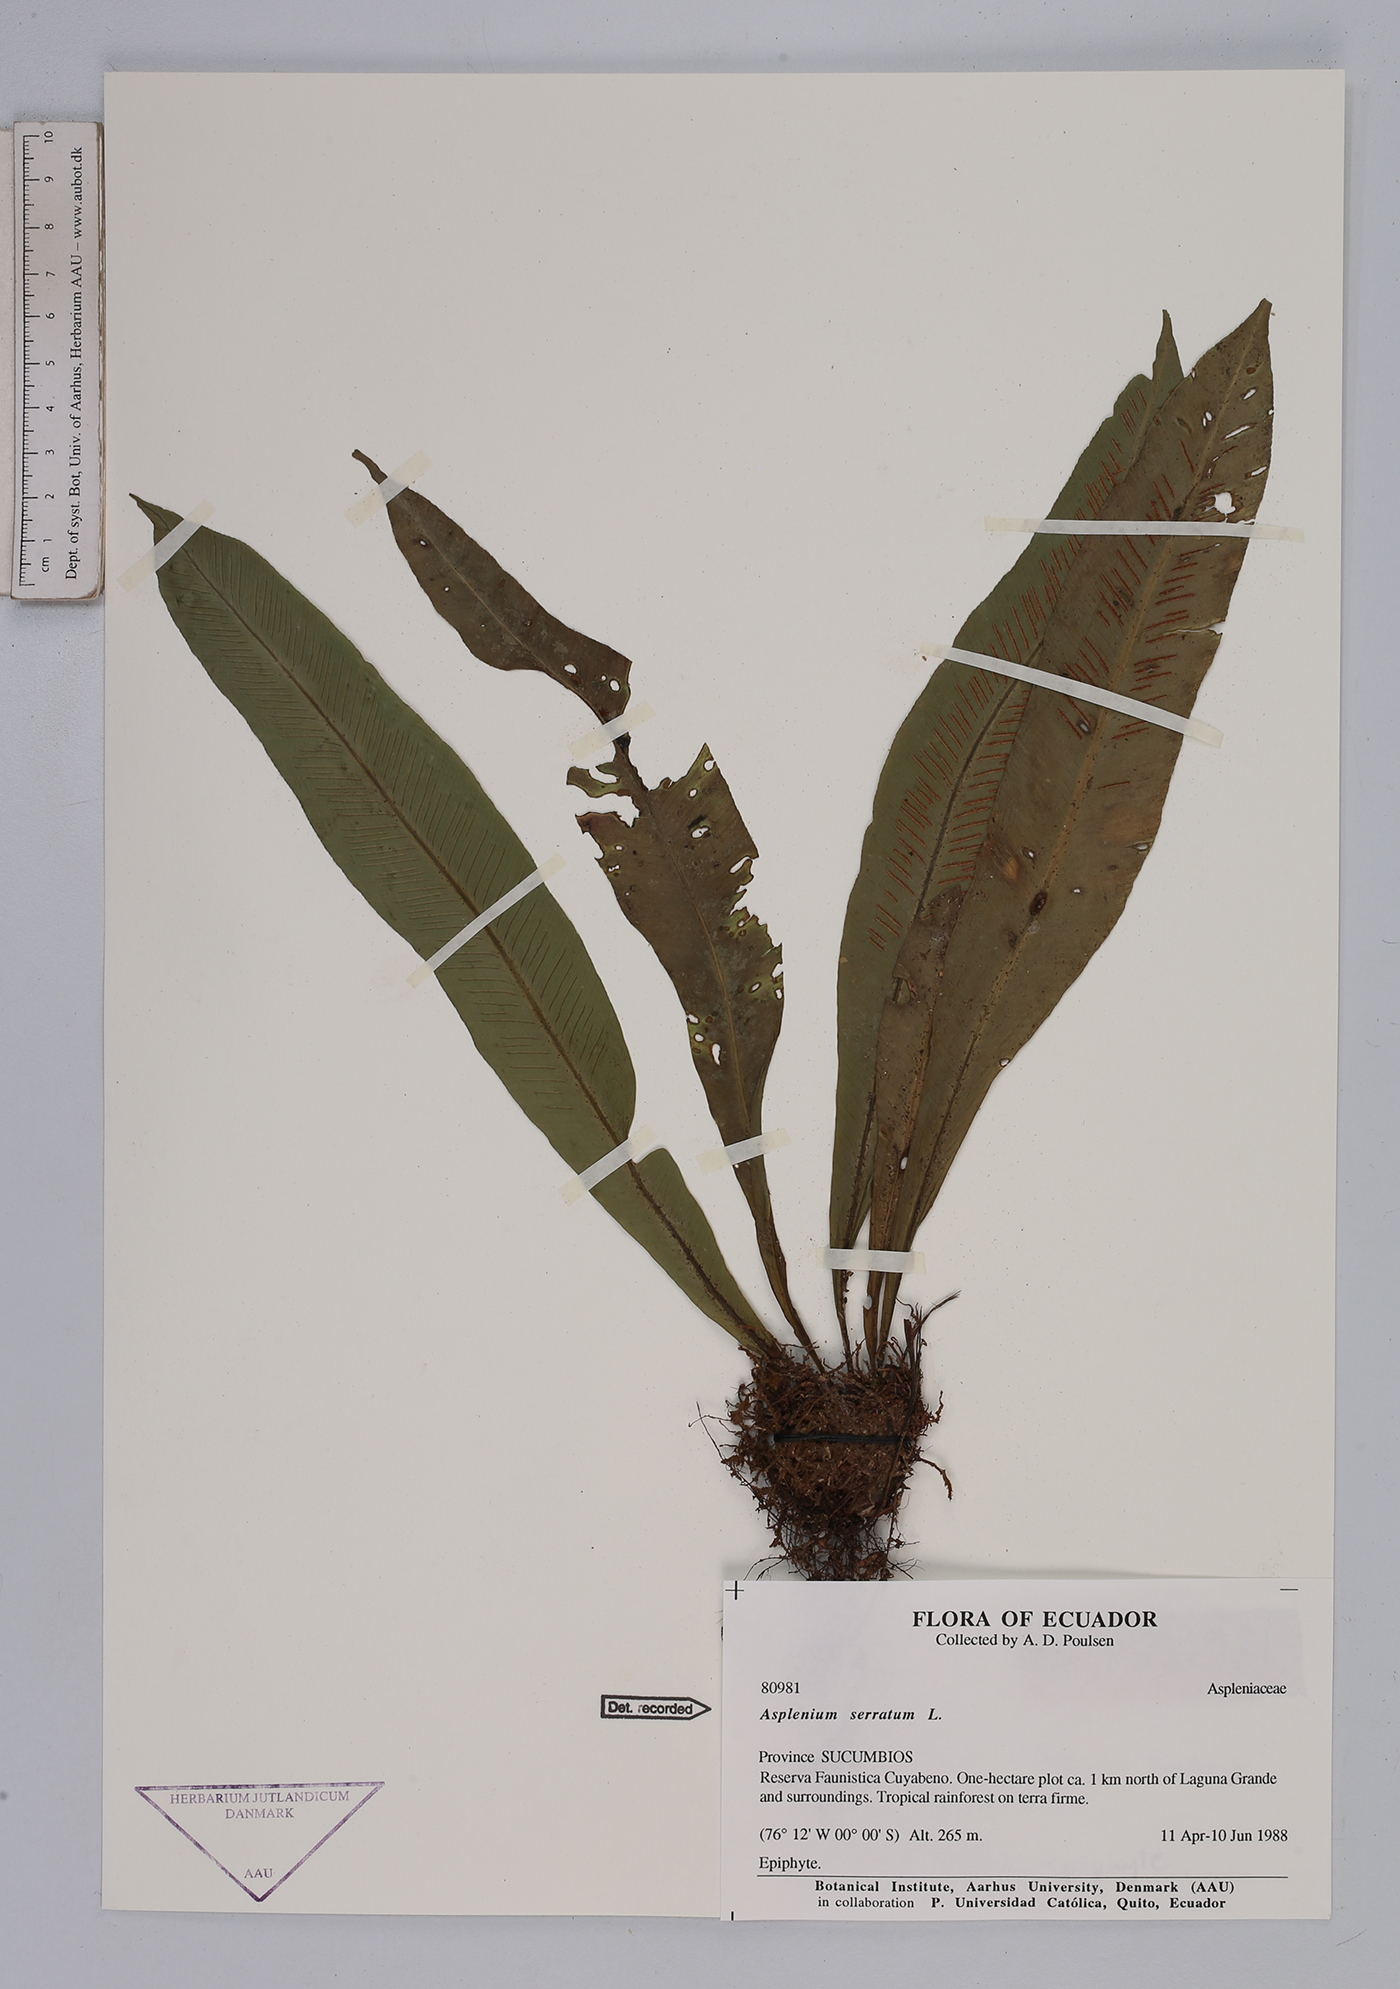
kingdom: Plantae
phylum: Tracheophyta
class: Polypodiopsida
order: Polypodiales
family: Aspleniaceae
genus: Asplenium
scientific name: Asplenium serratum
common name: Wild birdnest fern
